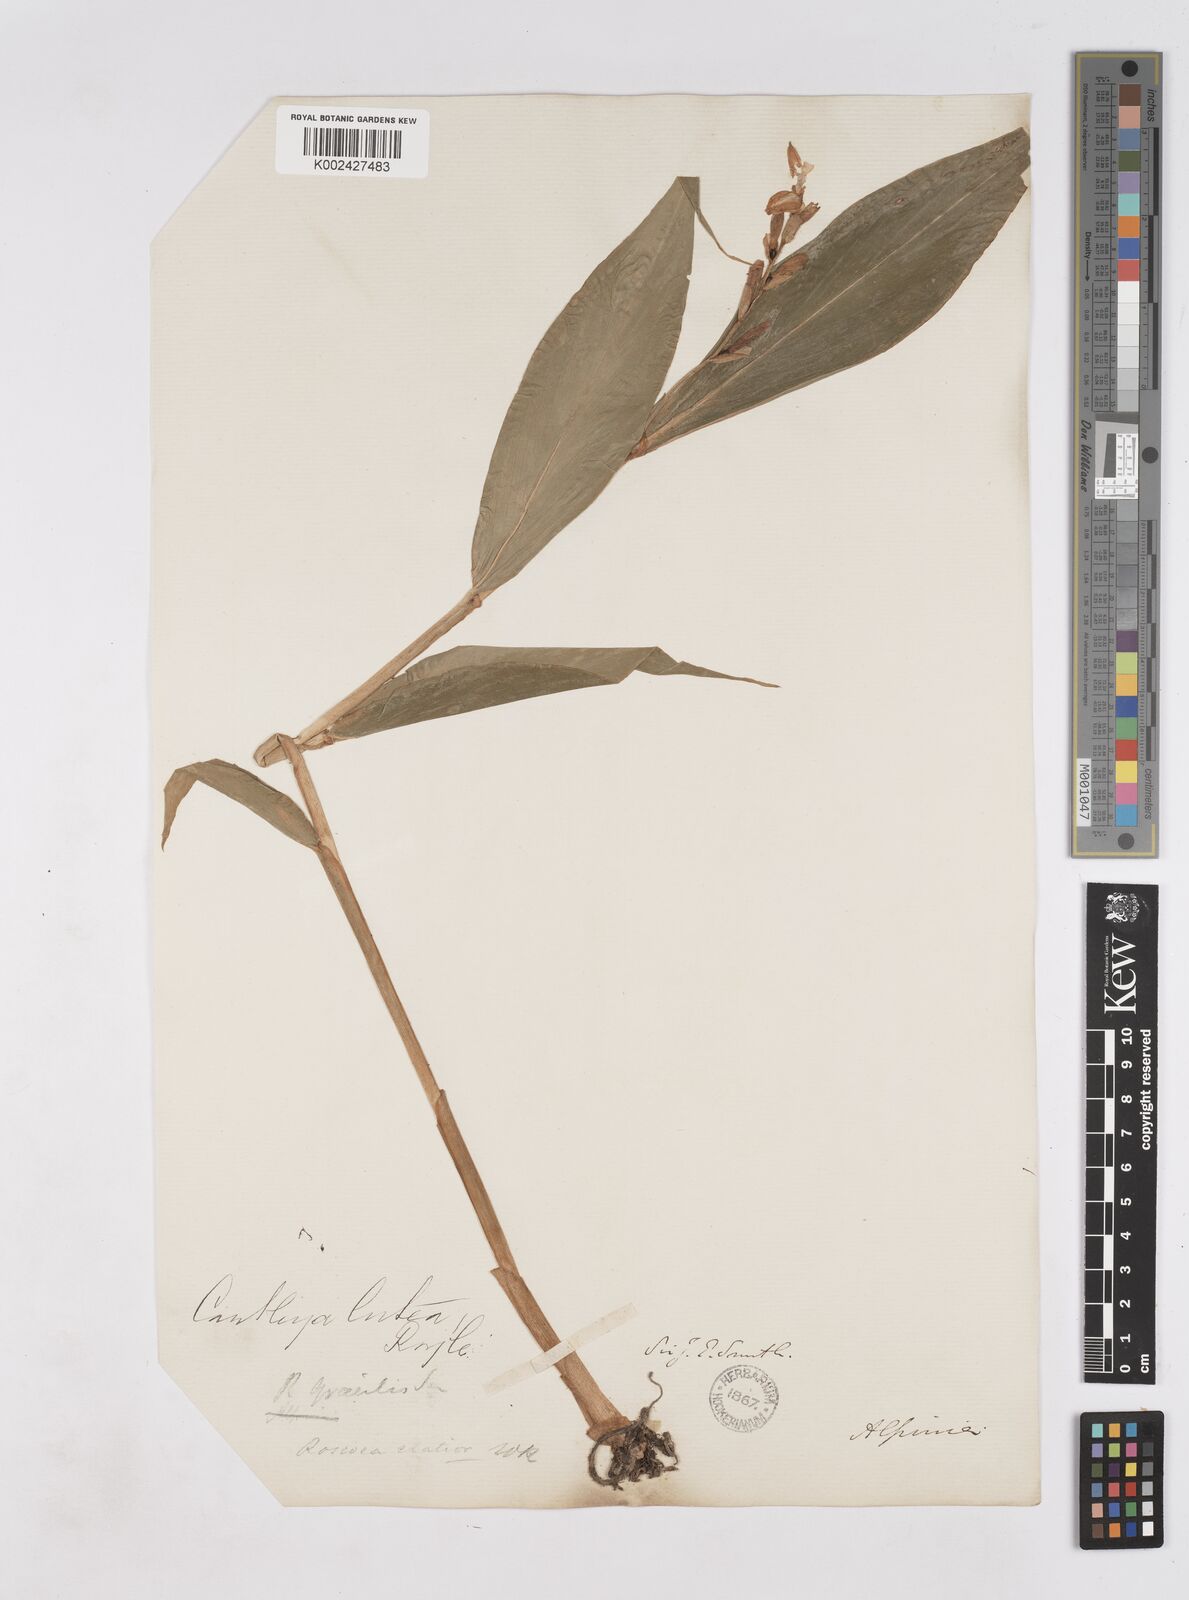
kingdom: Plantae
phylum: Tracheophyta
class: Liliopsida
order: Zingiberales
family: Zingiberaceae
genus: Cautleya
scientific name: Cautleya gracilis
